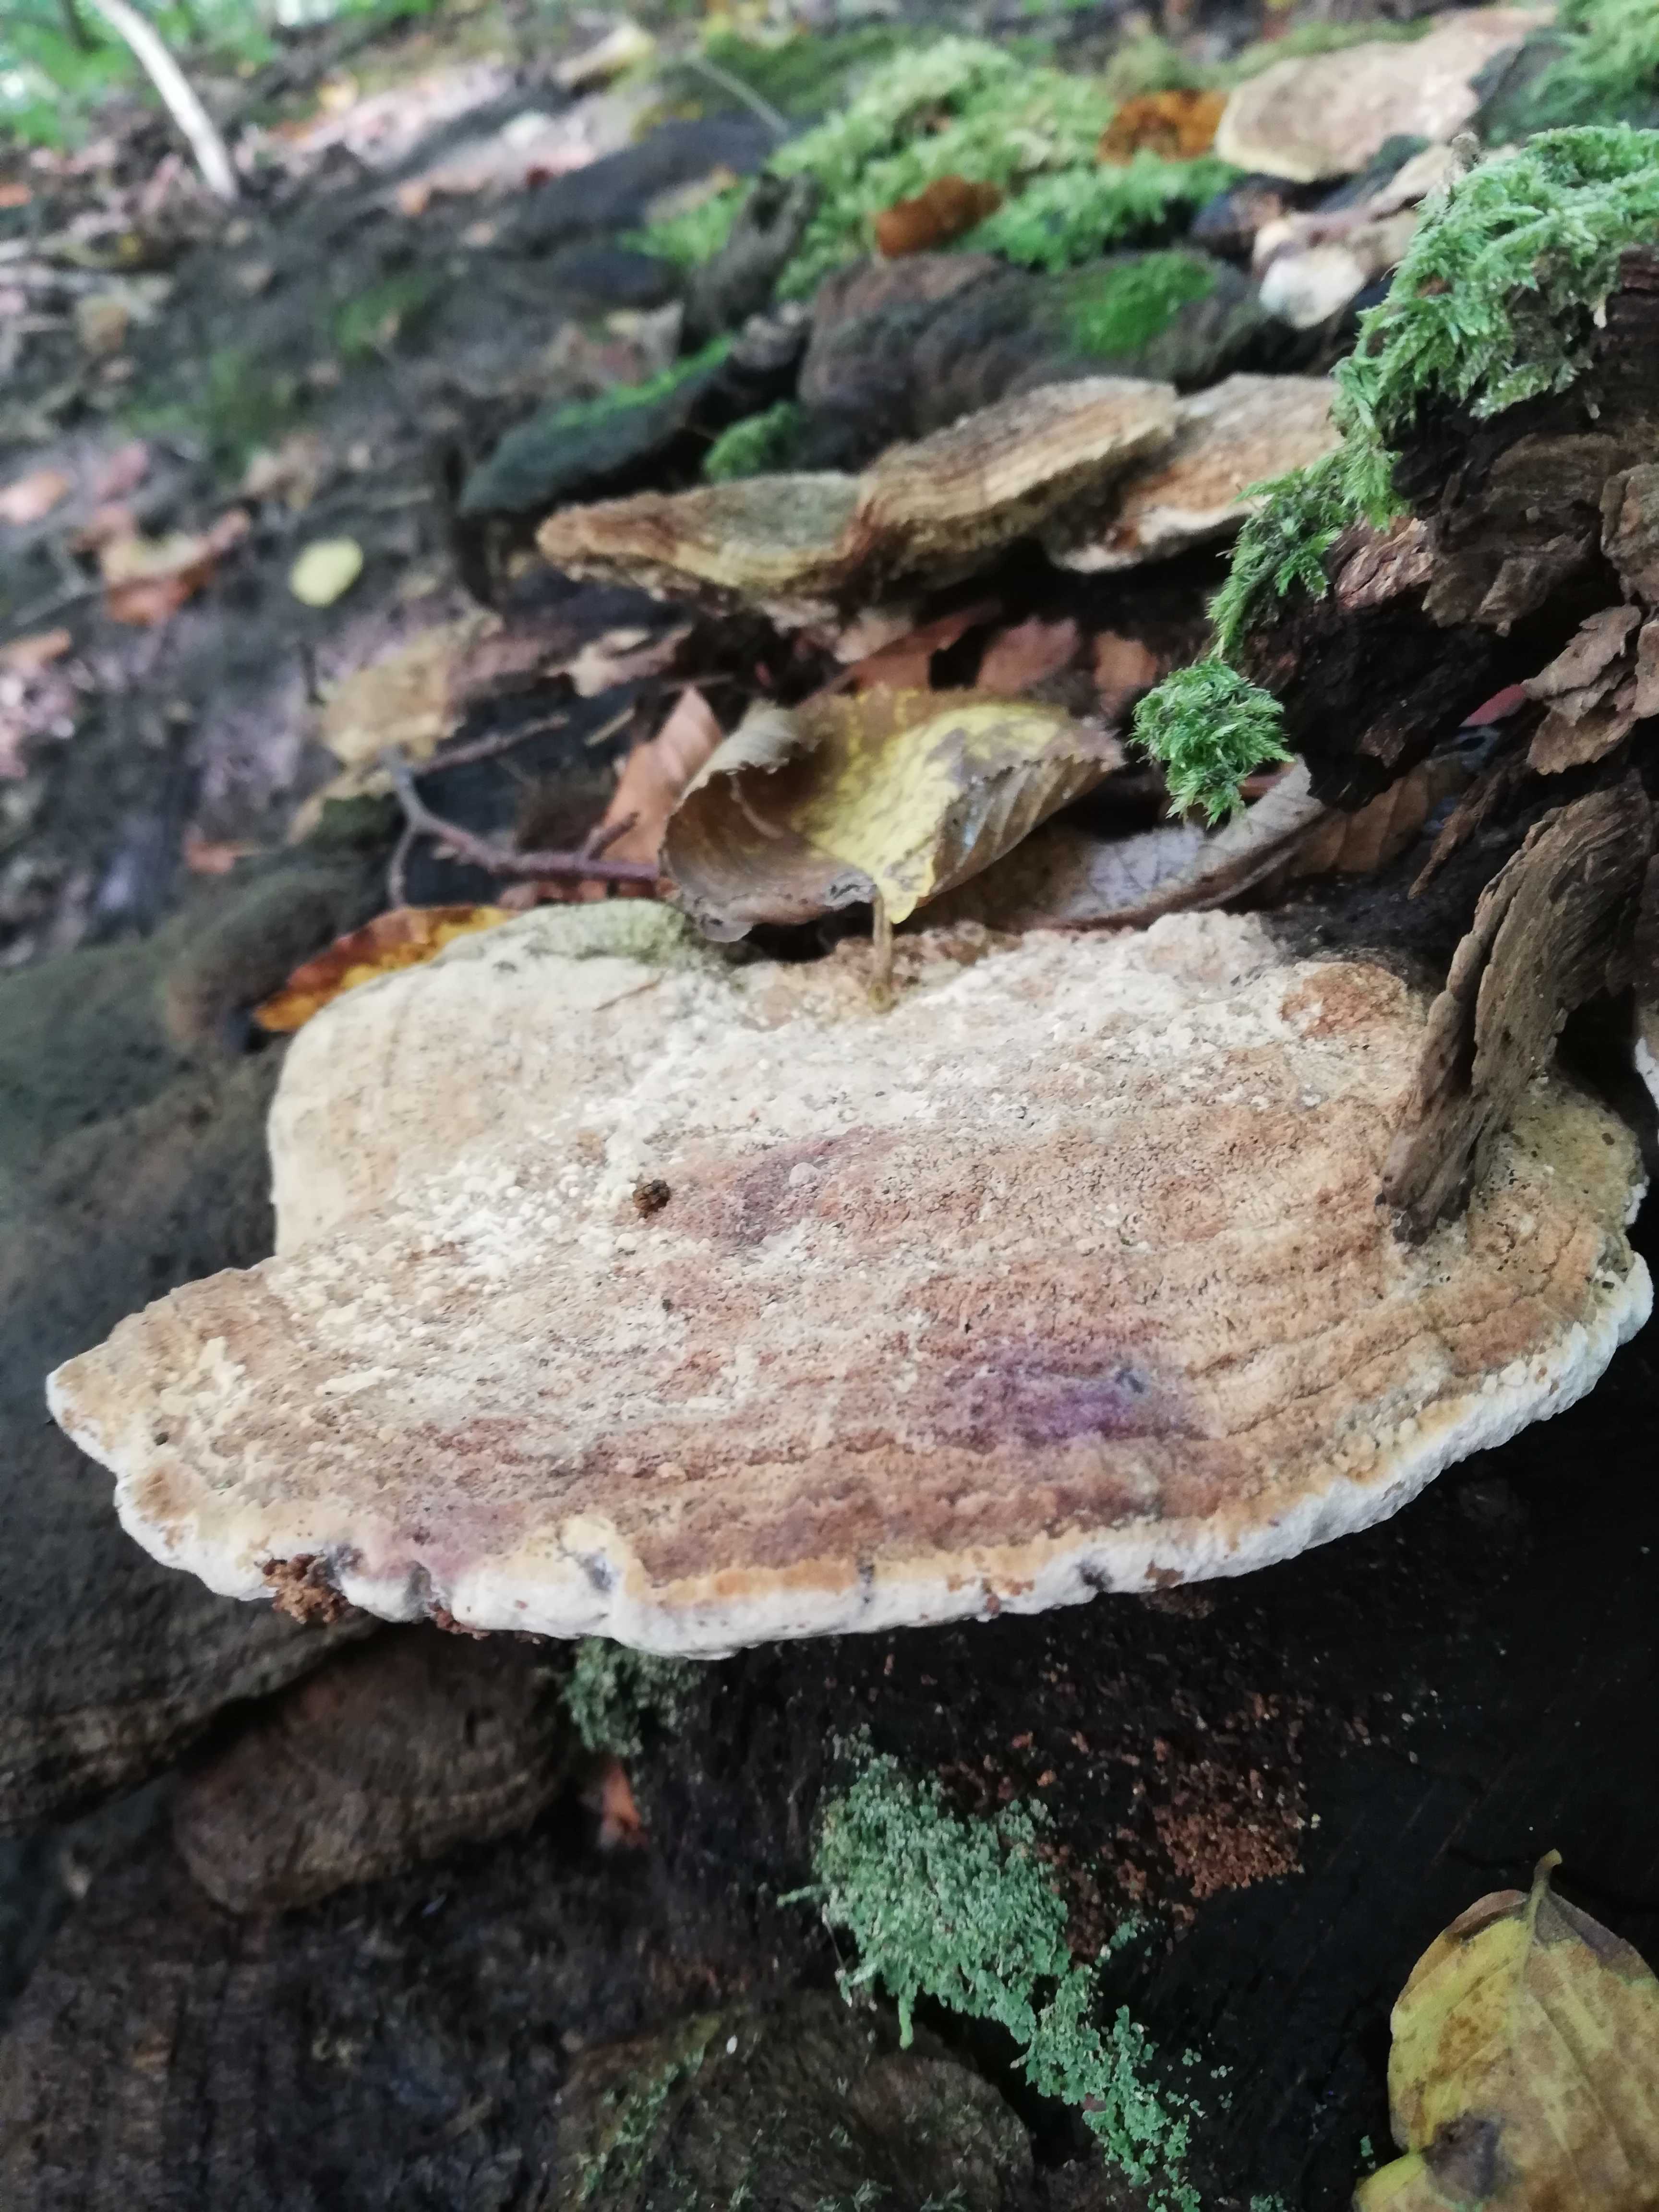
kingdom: Fungi
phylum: Basidiomycota
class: Agaricomycetes
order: Polyporales
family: Fomitopsidaceae
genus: Daedalea
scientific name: Daedalea quercina
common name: ege-labyrintsvamp
